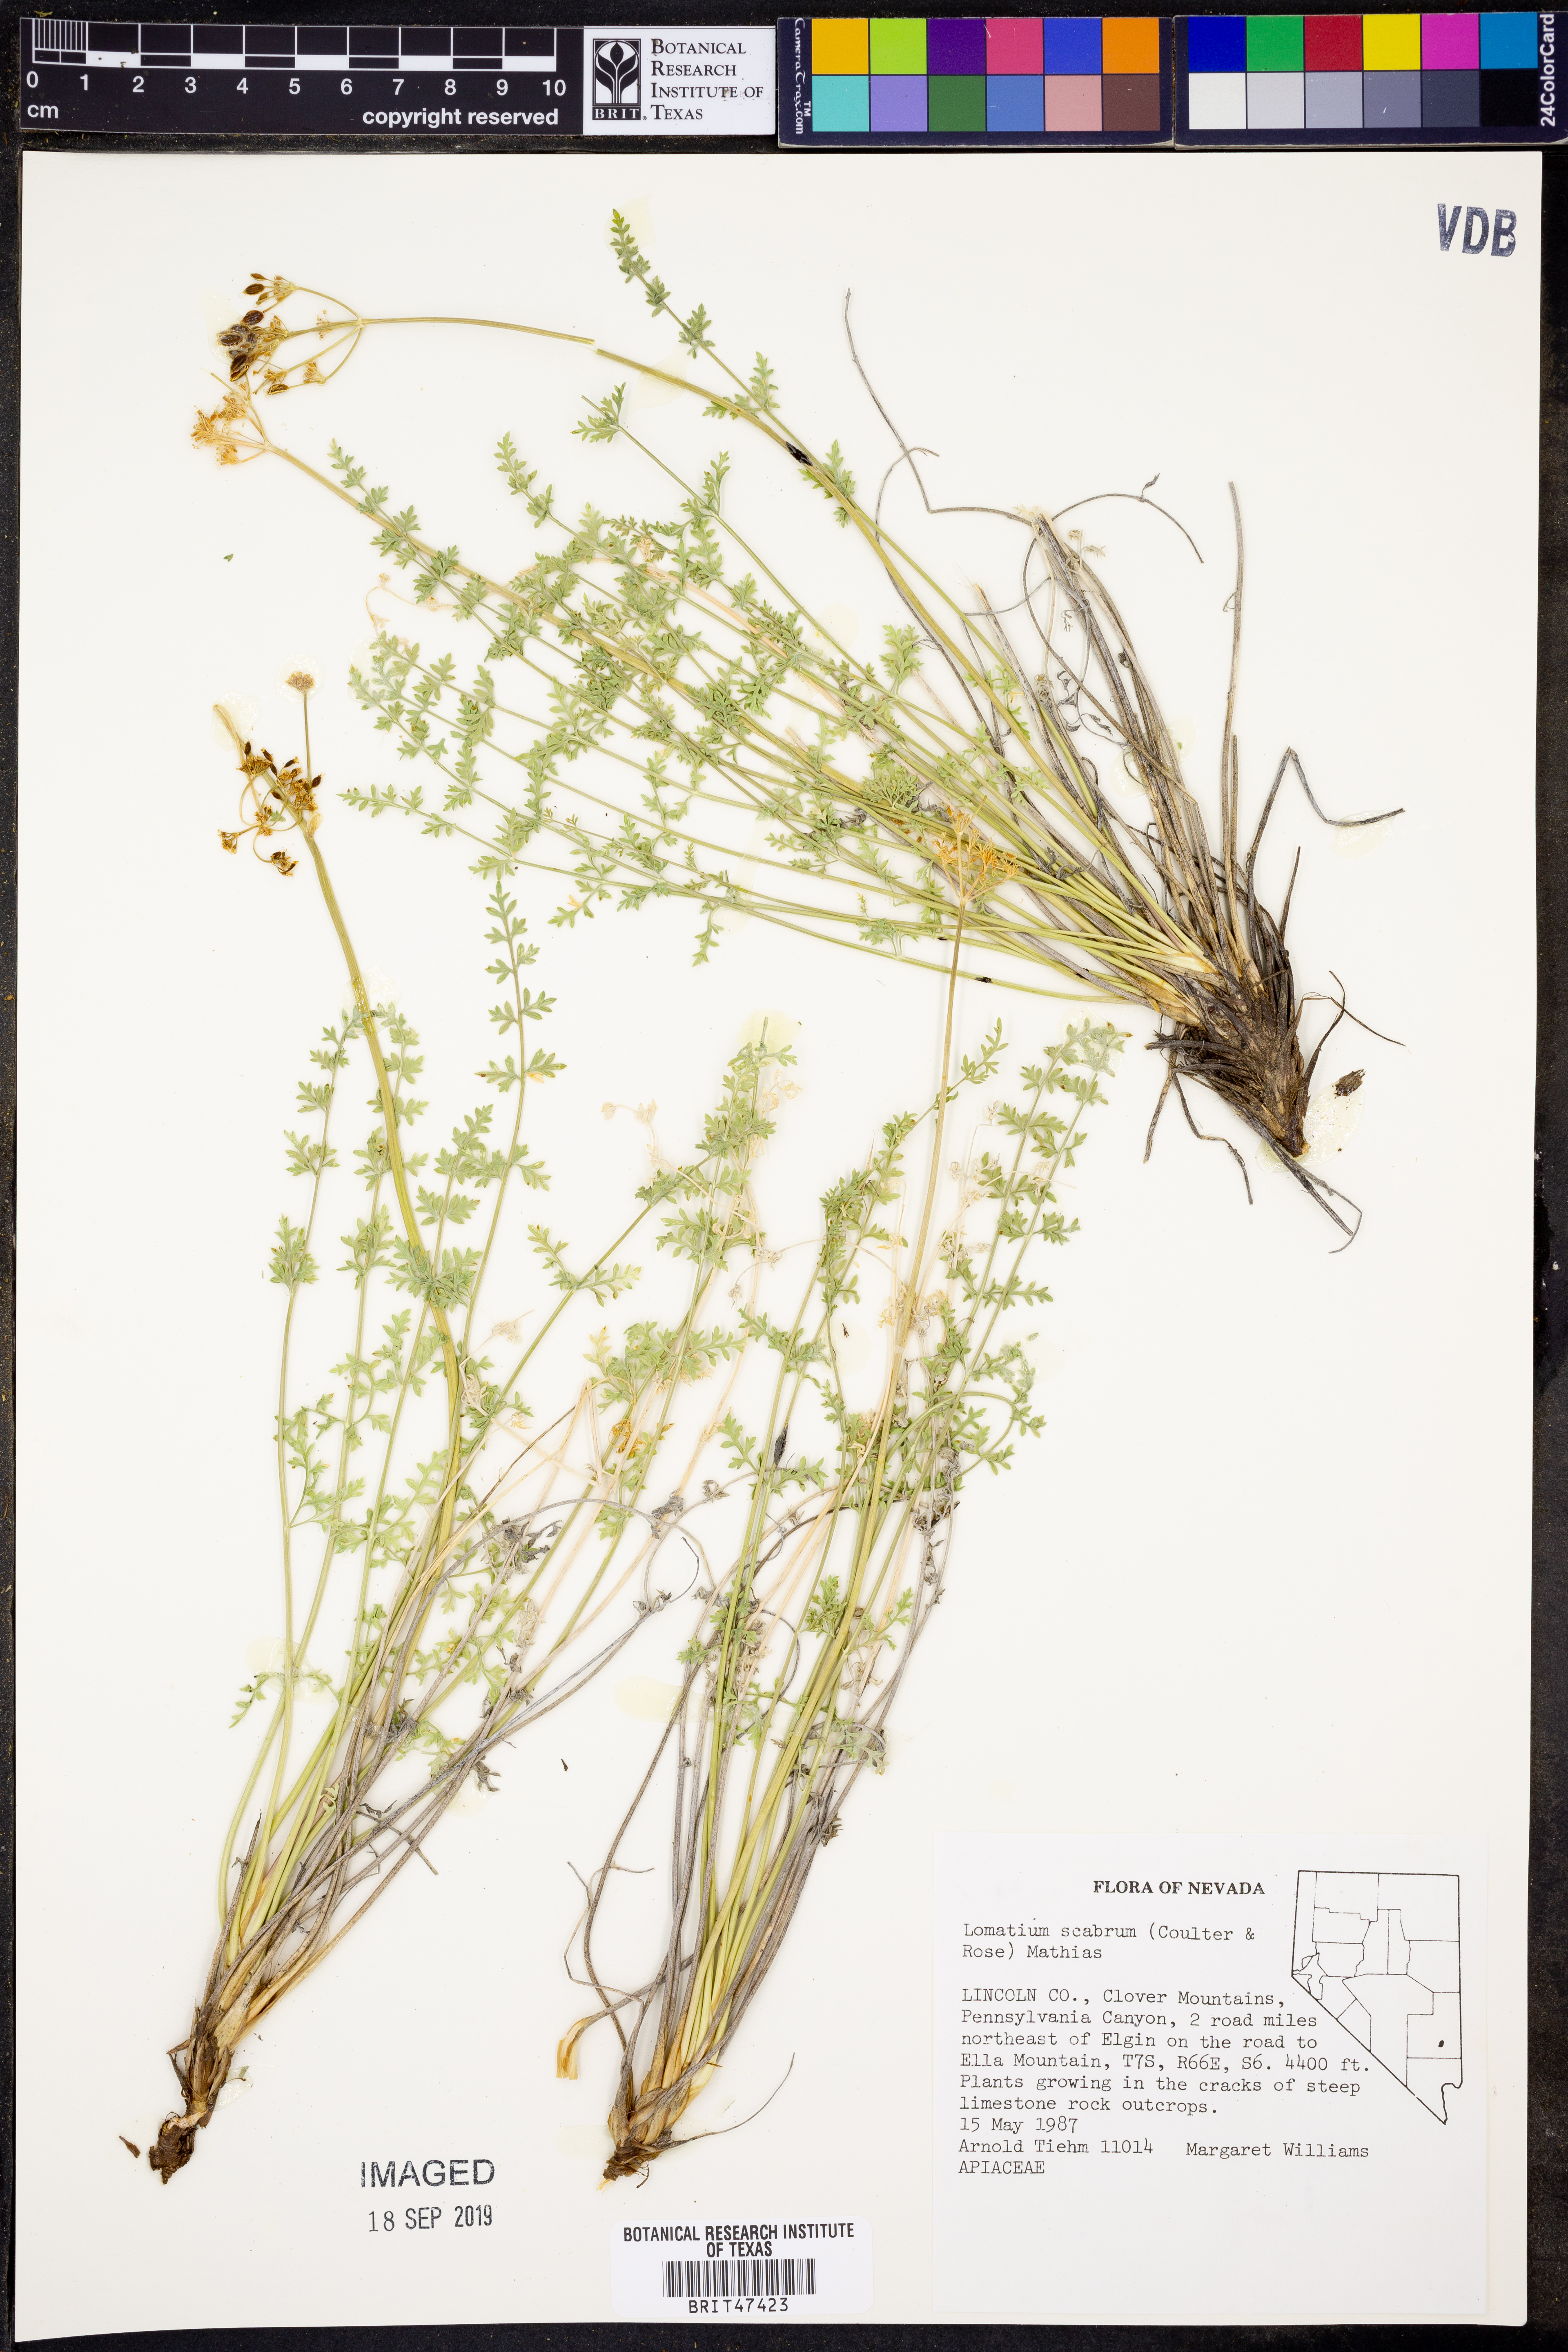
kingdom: Plantae
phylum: Tracheophyta
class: Magnoliopsida
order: Apiales
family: Apiaceae
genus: Lomatium
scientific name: Lomatium scabrum
